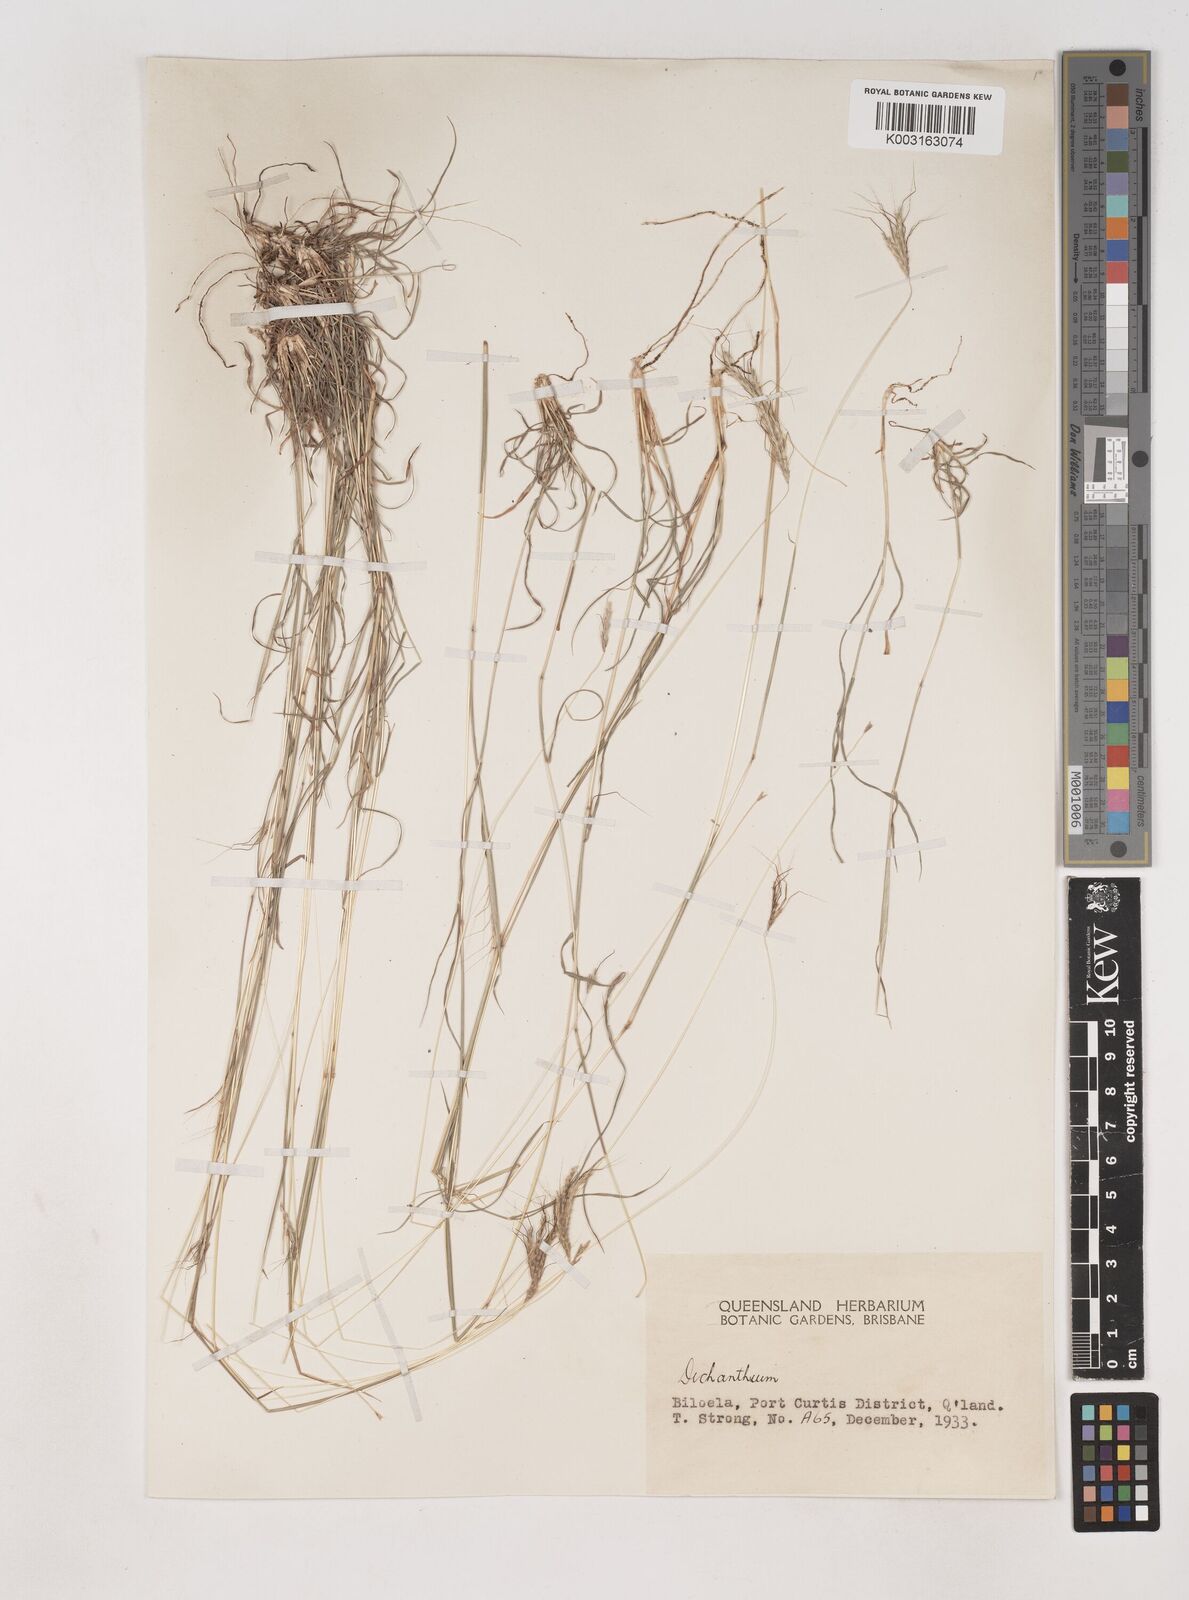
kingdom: Plantae
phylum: Tracheophyta
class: Liliopsida
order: Poales
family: Poaceae
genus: Dichanthium
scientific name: Dichanthium sericeum
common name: Silky bluestem
